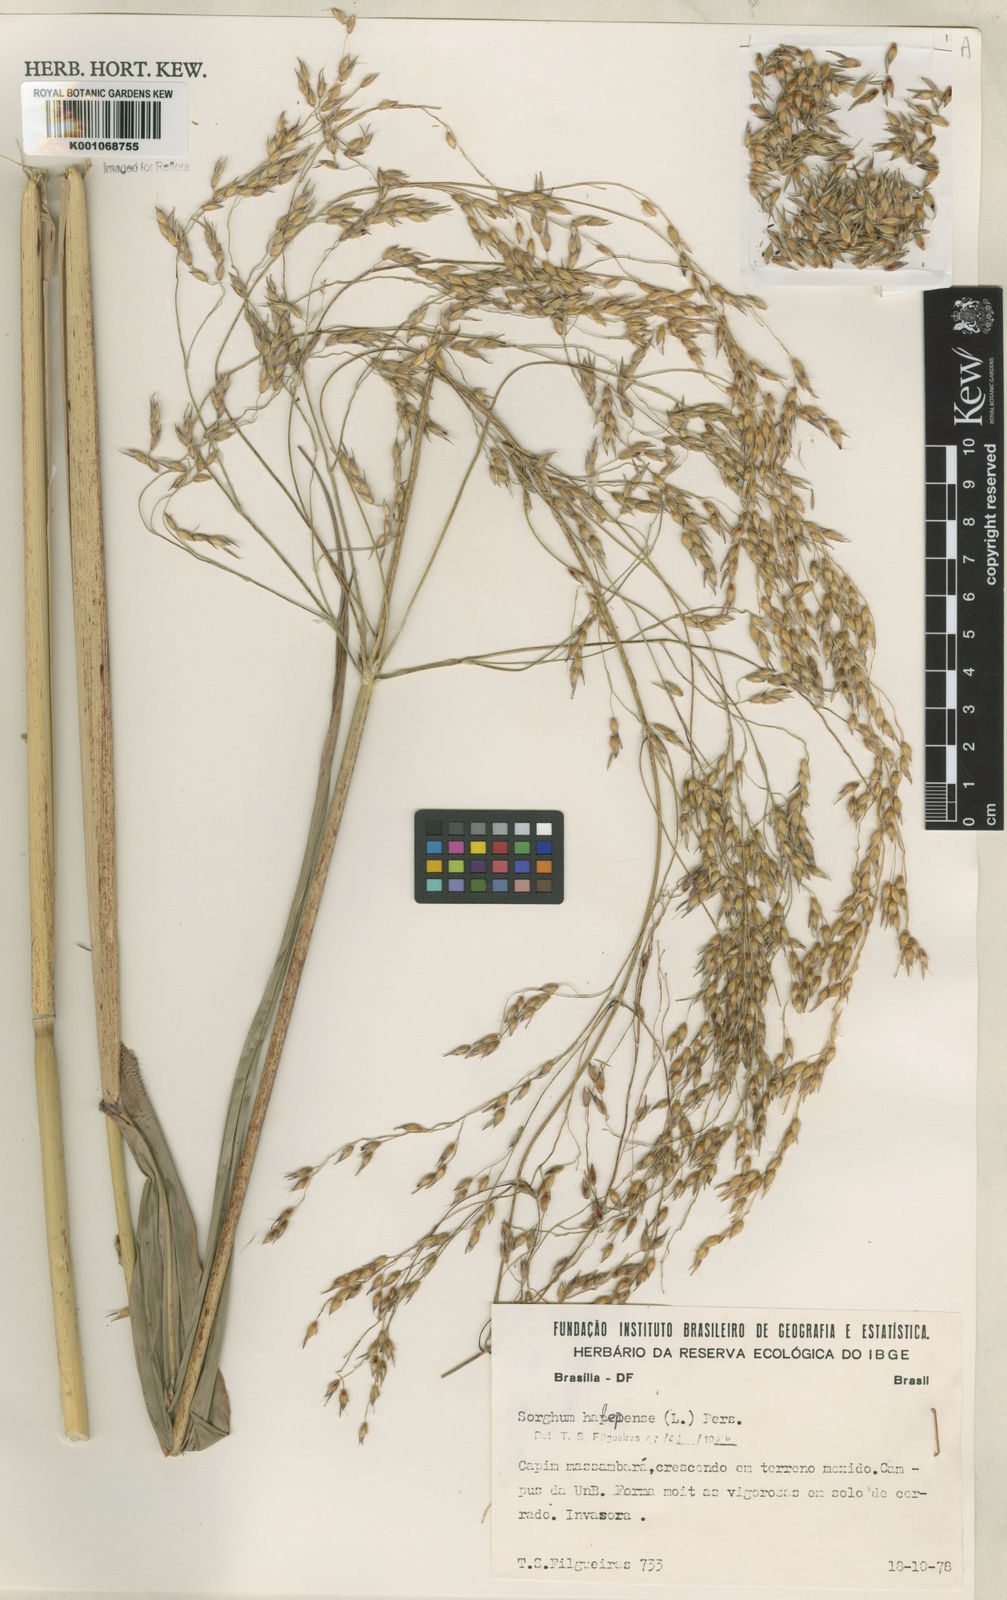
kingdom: Plantae
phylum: Tracheophyta
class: Liliopsida
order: Poales
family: Poaceae
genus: Sorghum
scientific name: Sorghum halepense
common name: Johnson-grass
